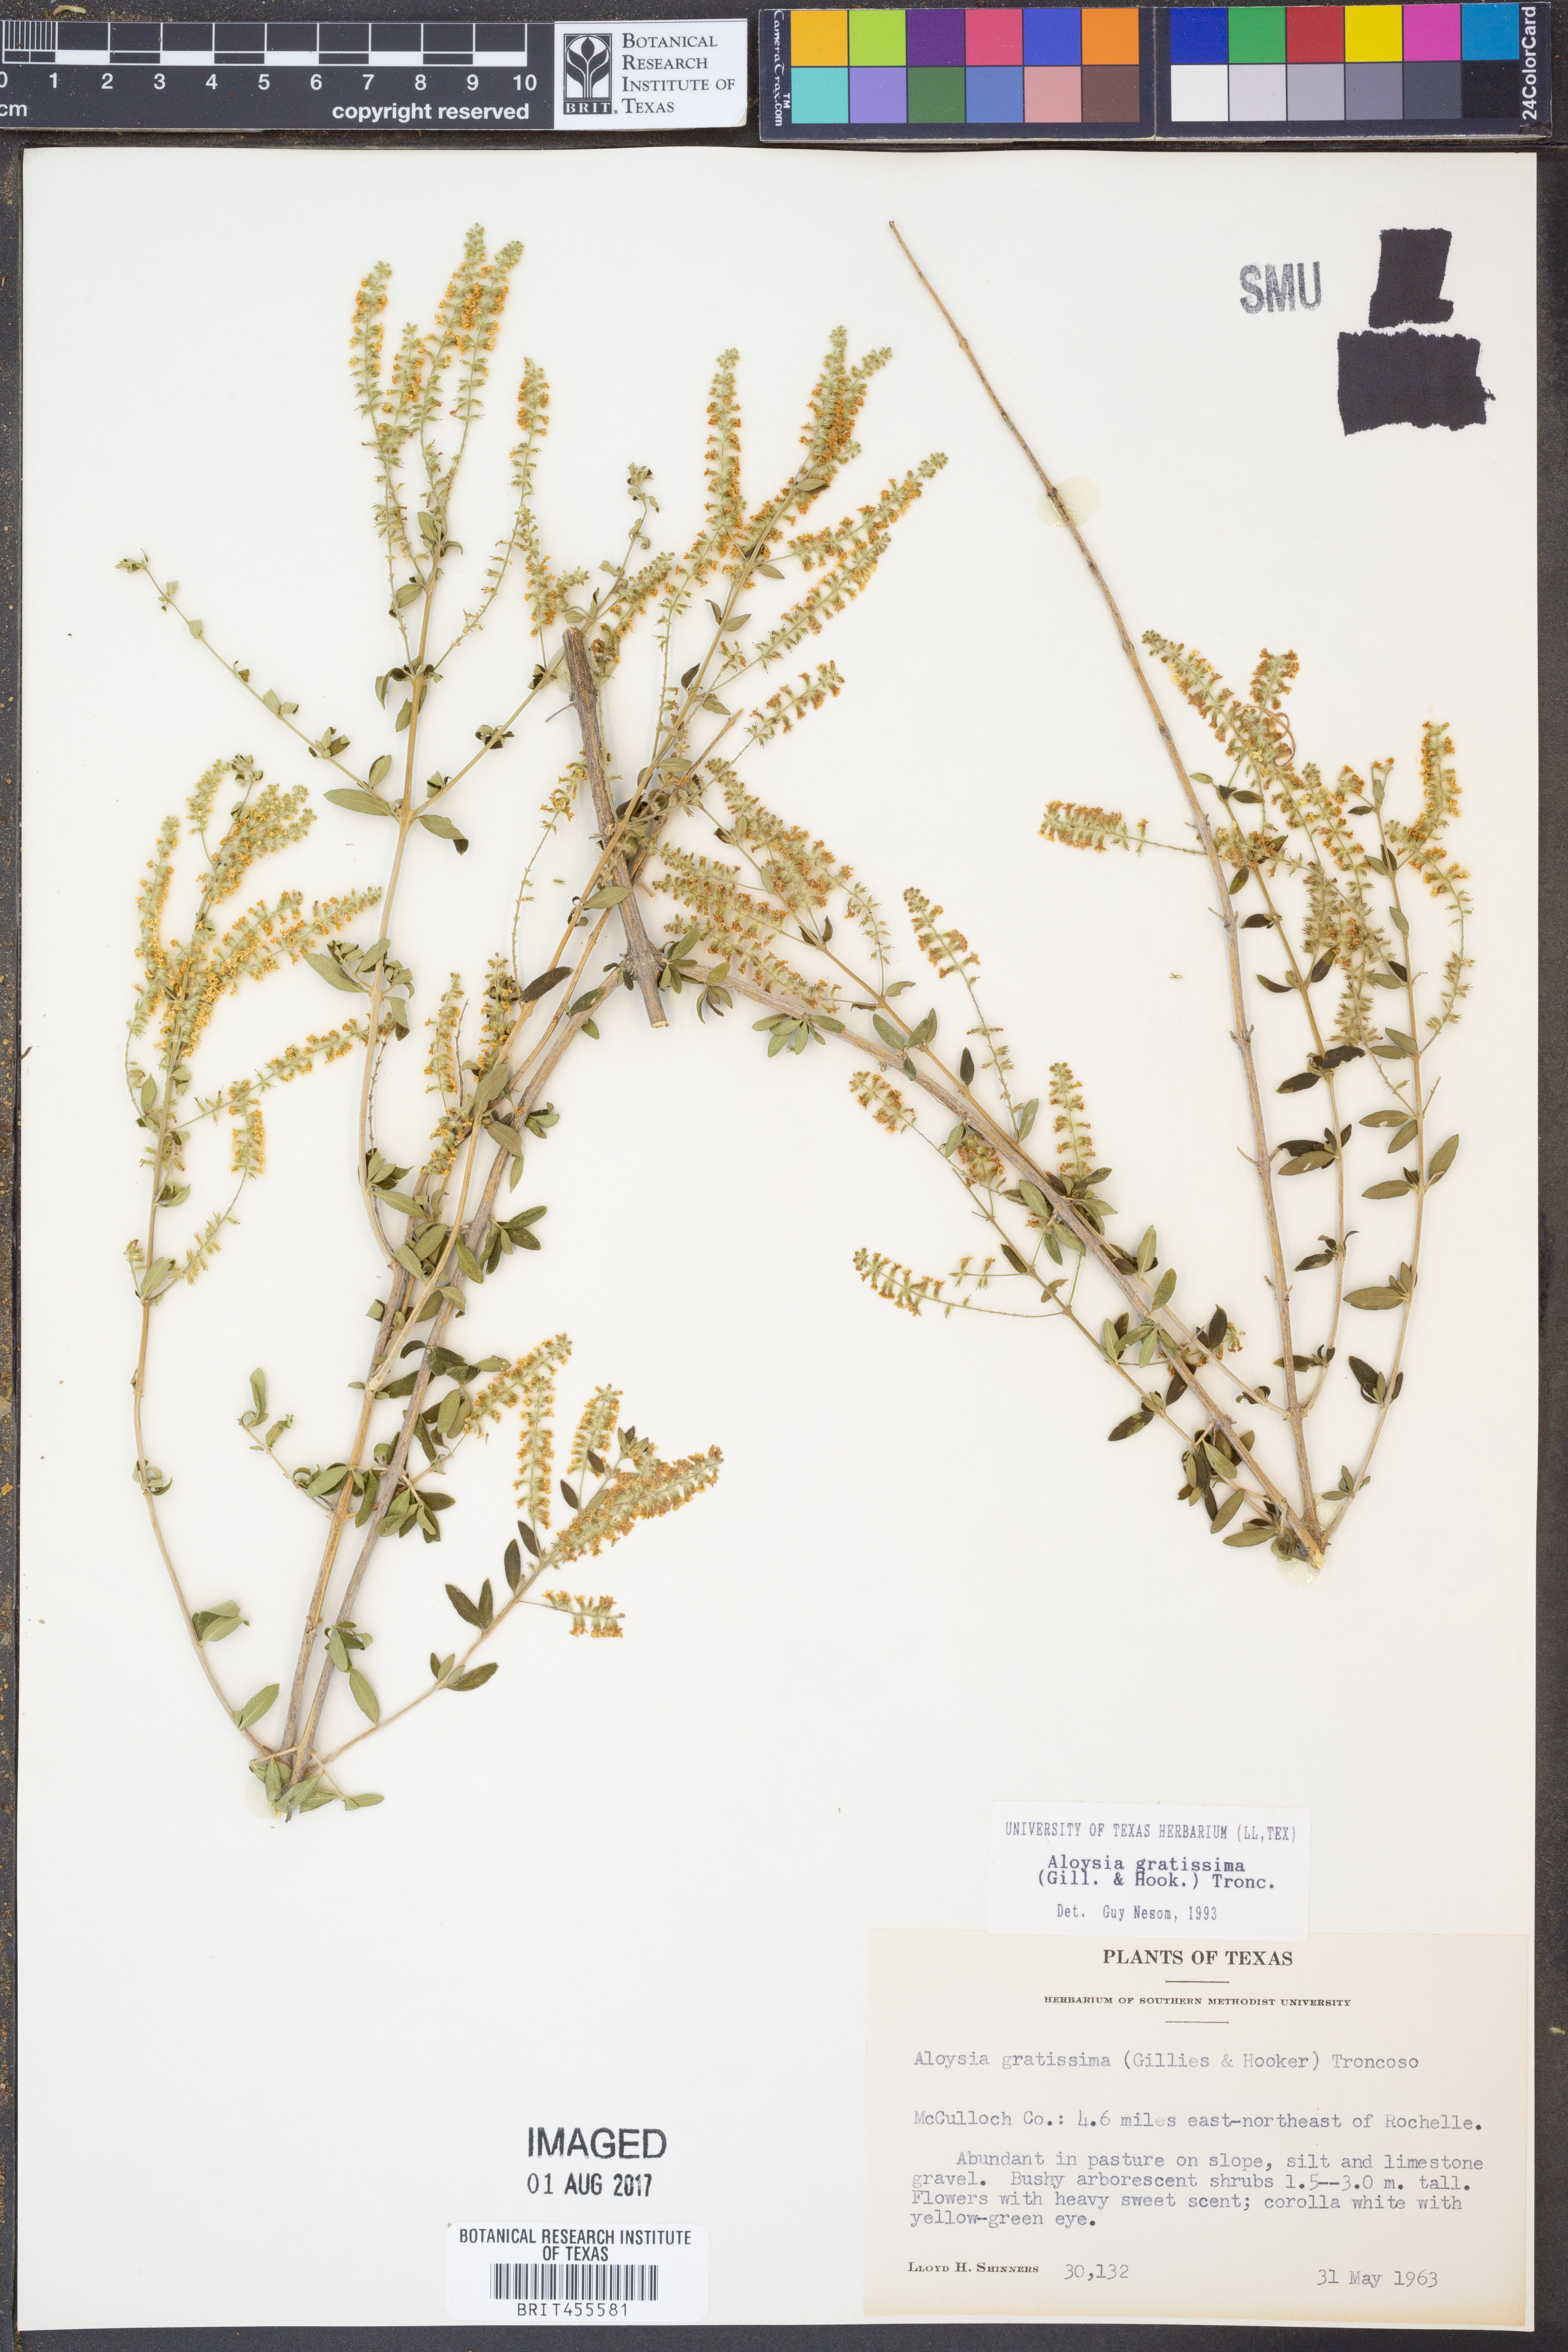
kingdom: Plantae
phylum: Tracheophyta
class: Magnoliopsida
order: Lamiales
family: Verbenaceae
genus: Aloysia
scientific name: Aloysia gratissima
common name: Common bee-brush
